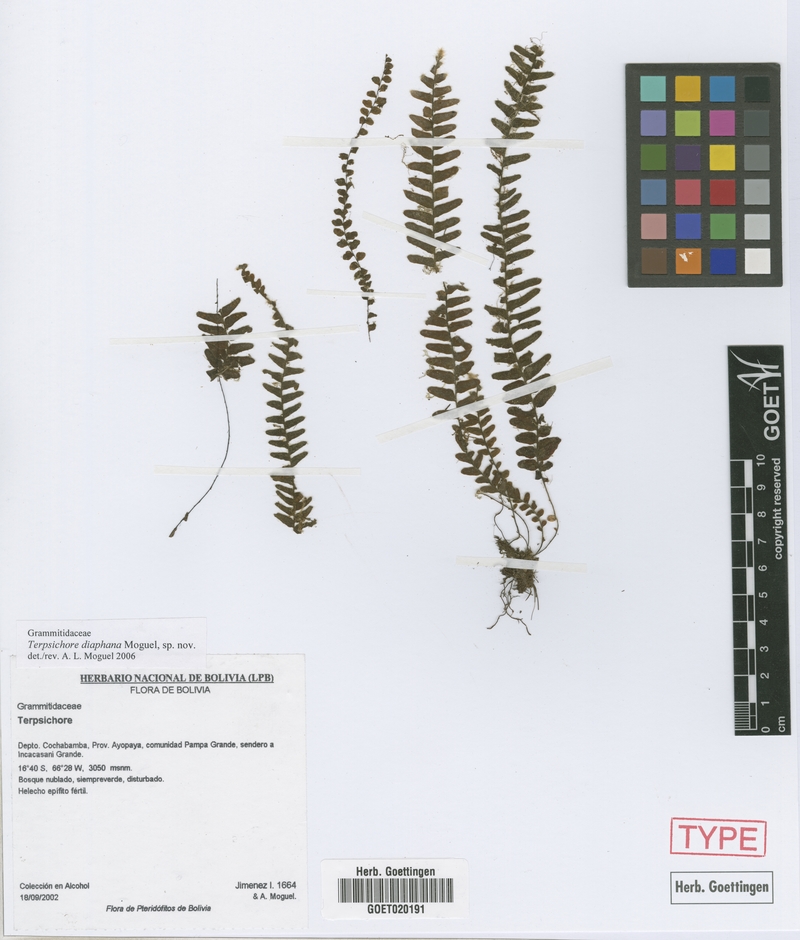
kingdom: Plantae
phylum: Tracheophyta
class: Polypodiopsida
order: Polypodiales
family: Polypodiaceae
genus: Alansmia
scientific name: Alansmia diaphana
